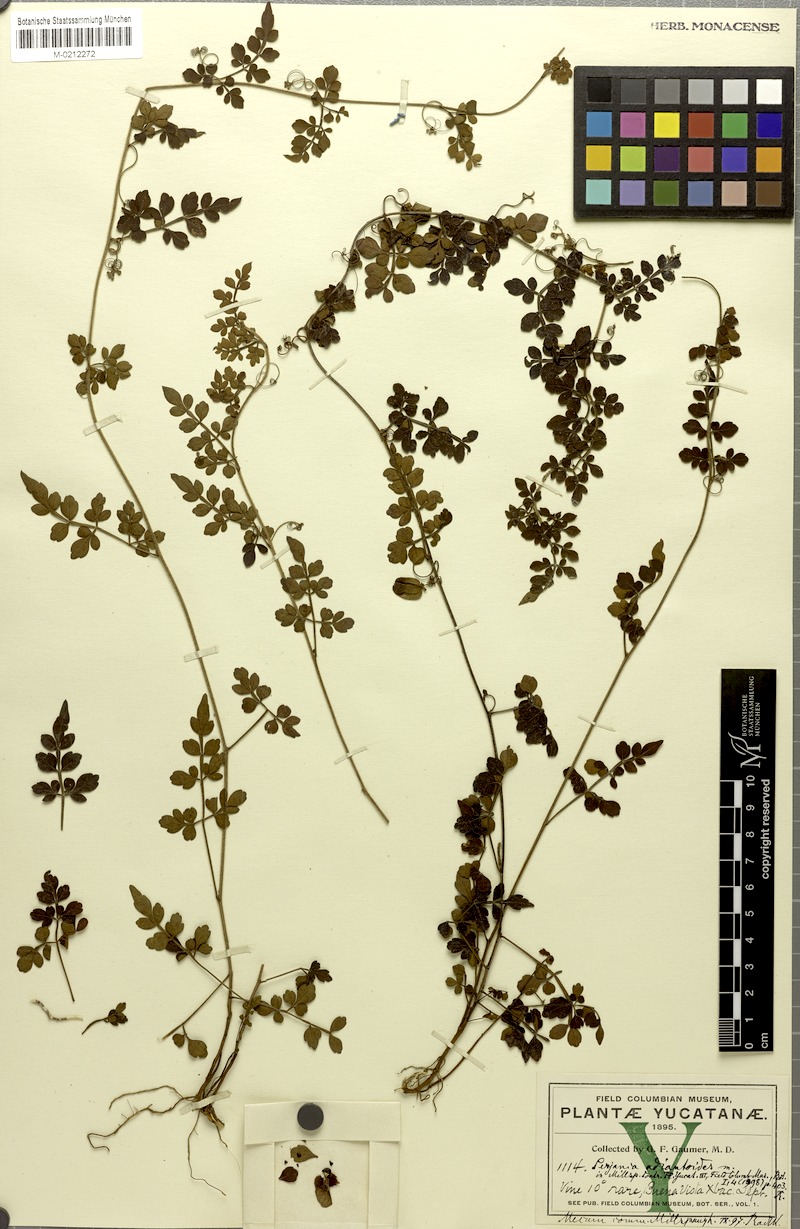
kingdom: Plantae
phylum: Tracheophyta
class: Magnoliopsida
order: Sapindales
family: Sapindaceae
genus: Serjania
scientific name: Serjania adiantoides
